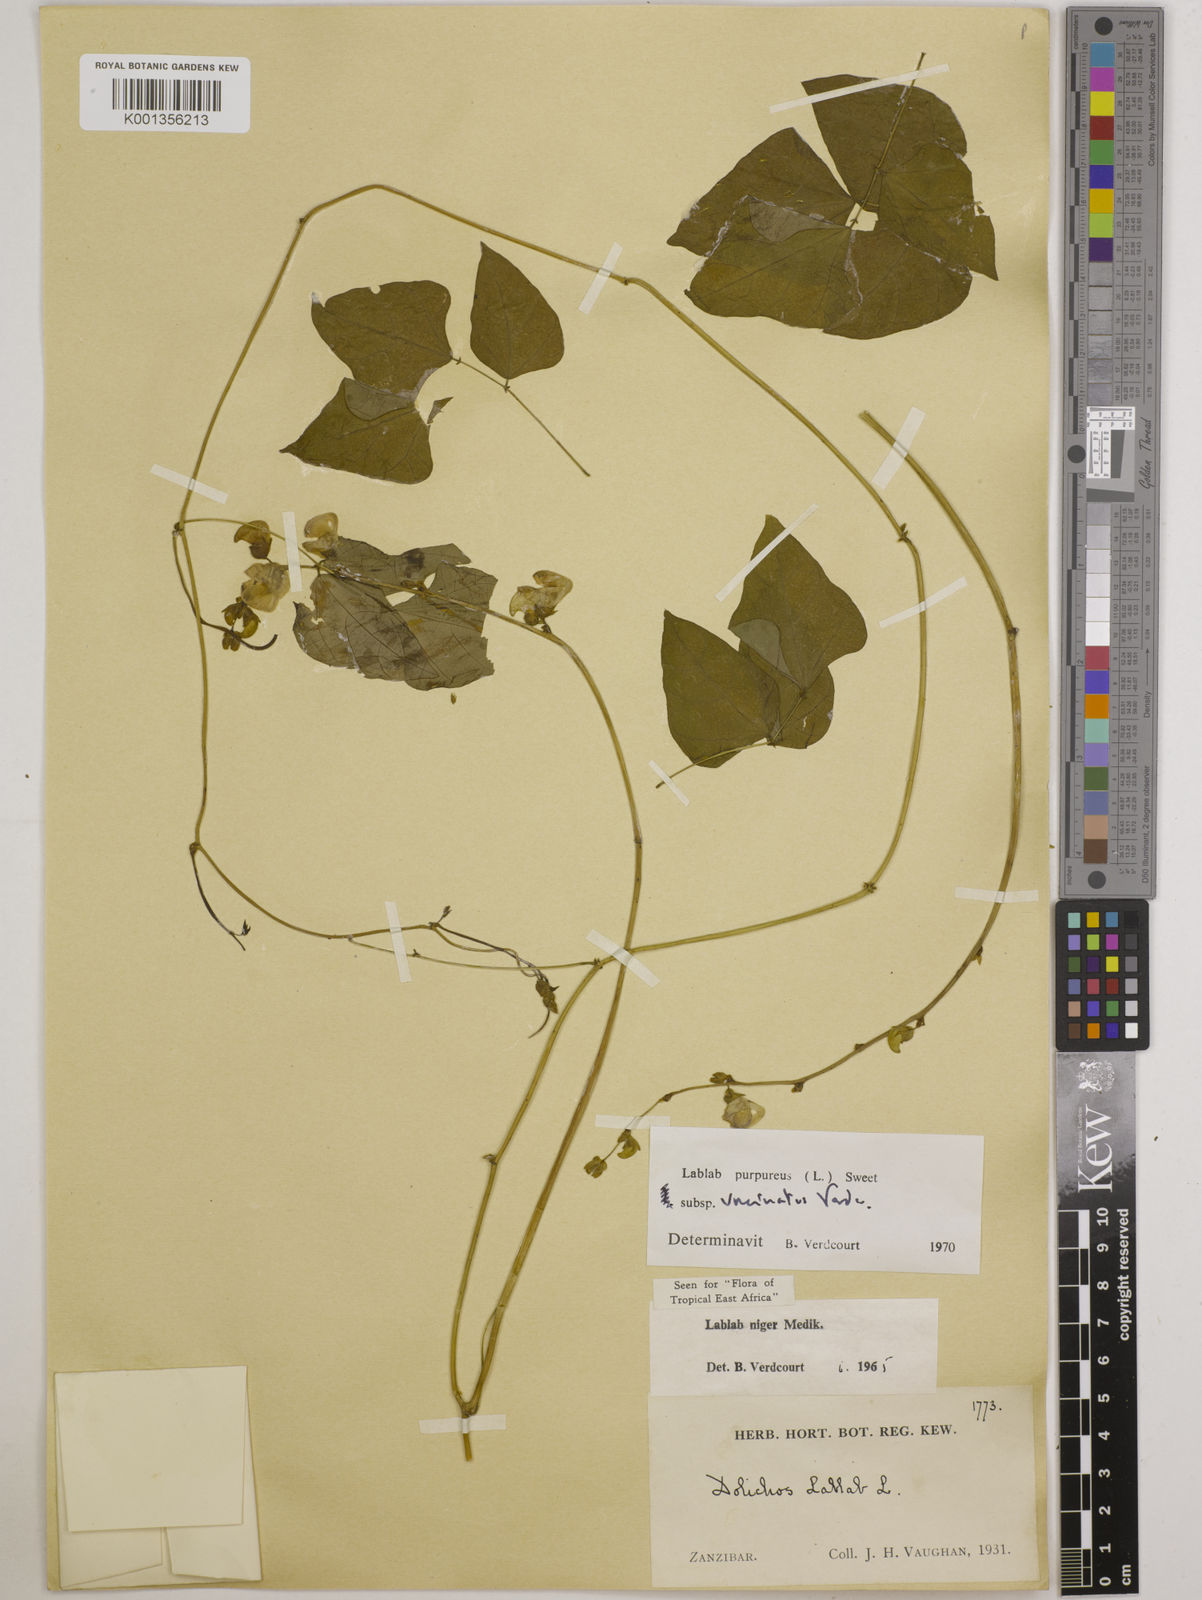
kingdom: Plantae
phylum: Tracheophyta
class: Magnoliopsida
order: Fabales
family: Fabaceae
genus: Lablab
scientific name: Lablab purpureus
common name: Lablab-bean
